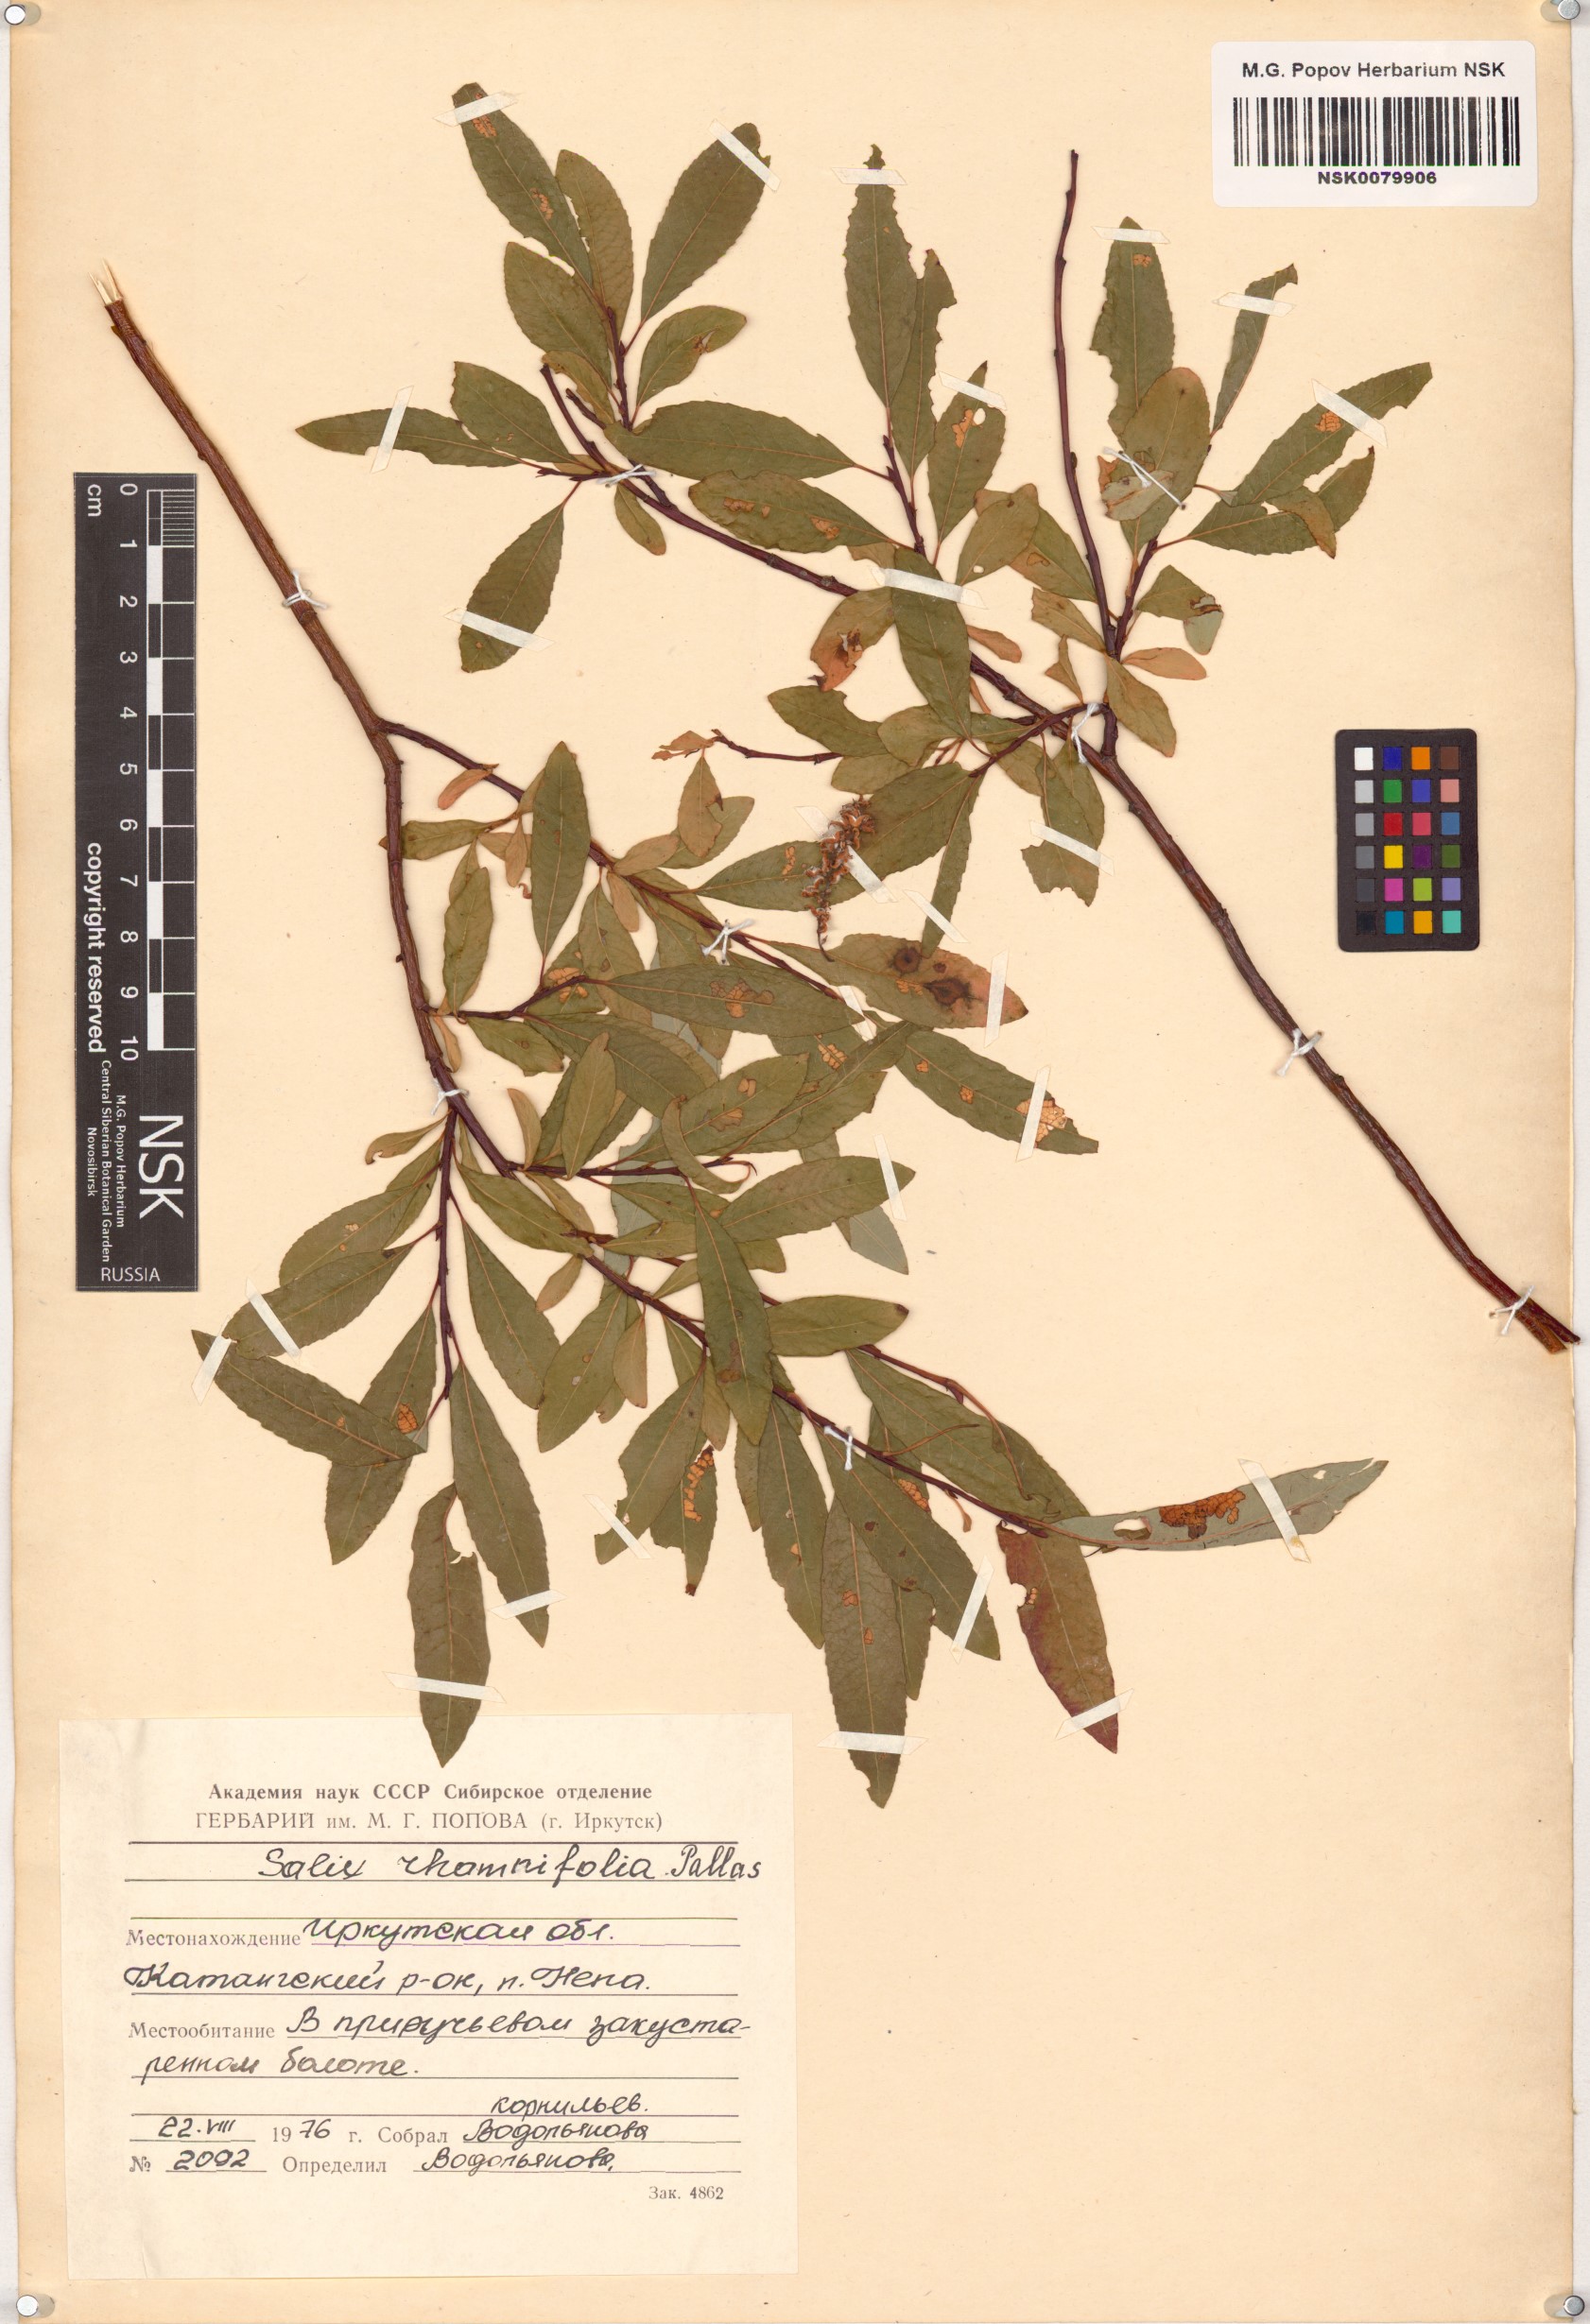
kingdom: Plantae
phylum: Tracheophyta
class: Magnoliopsida
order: Malpighiales
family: Salicaceae
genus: Salix
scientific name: Salix rhamnifolia
